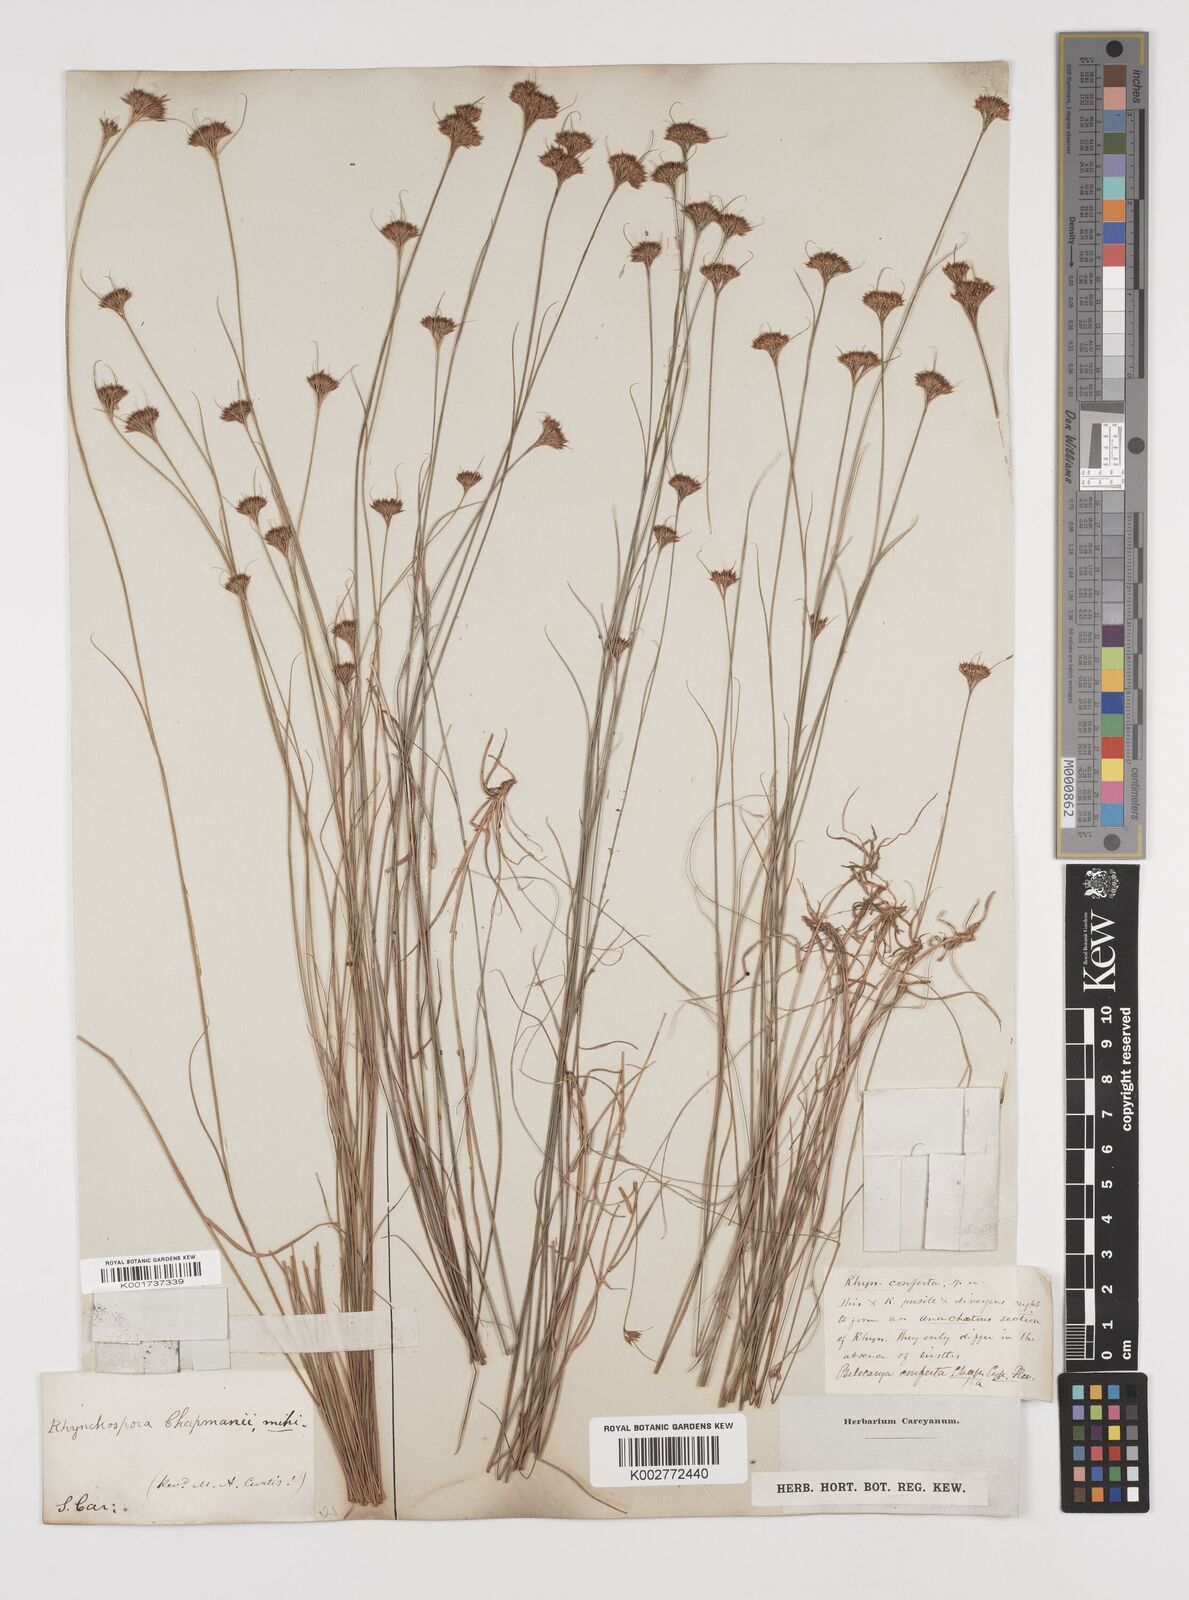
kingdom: Plantae
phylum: Tracheophyta
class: Liliopsida
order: Poales
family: Cyperaceae
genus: Rhynchospora
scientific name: Rhynchospora
